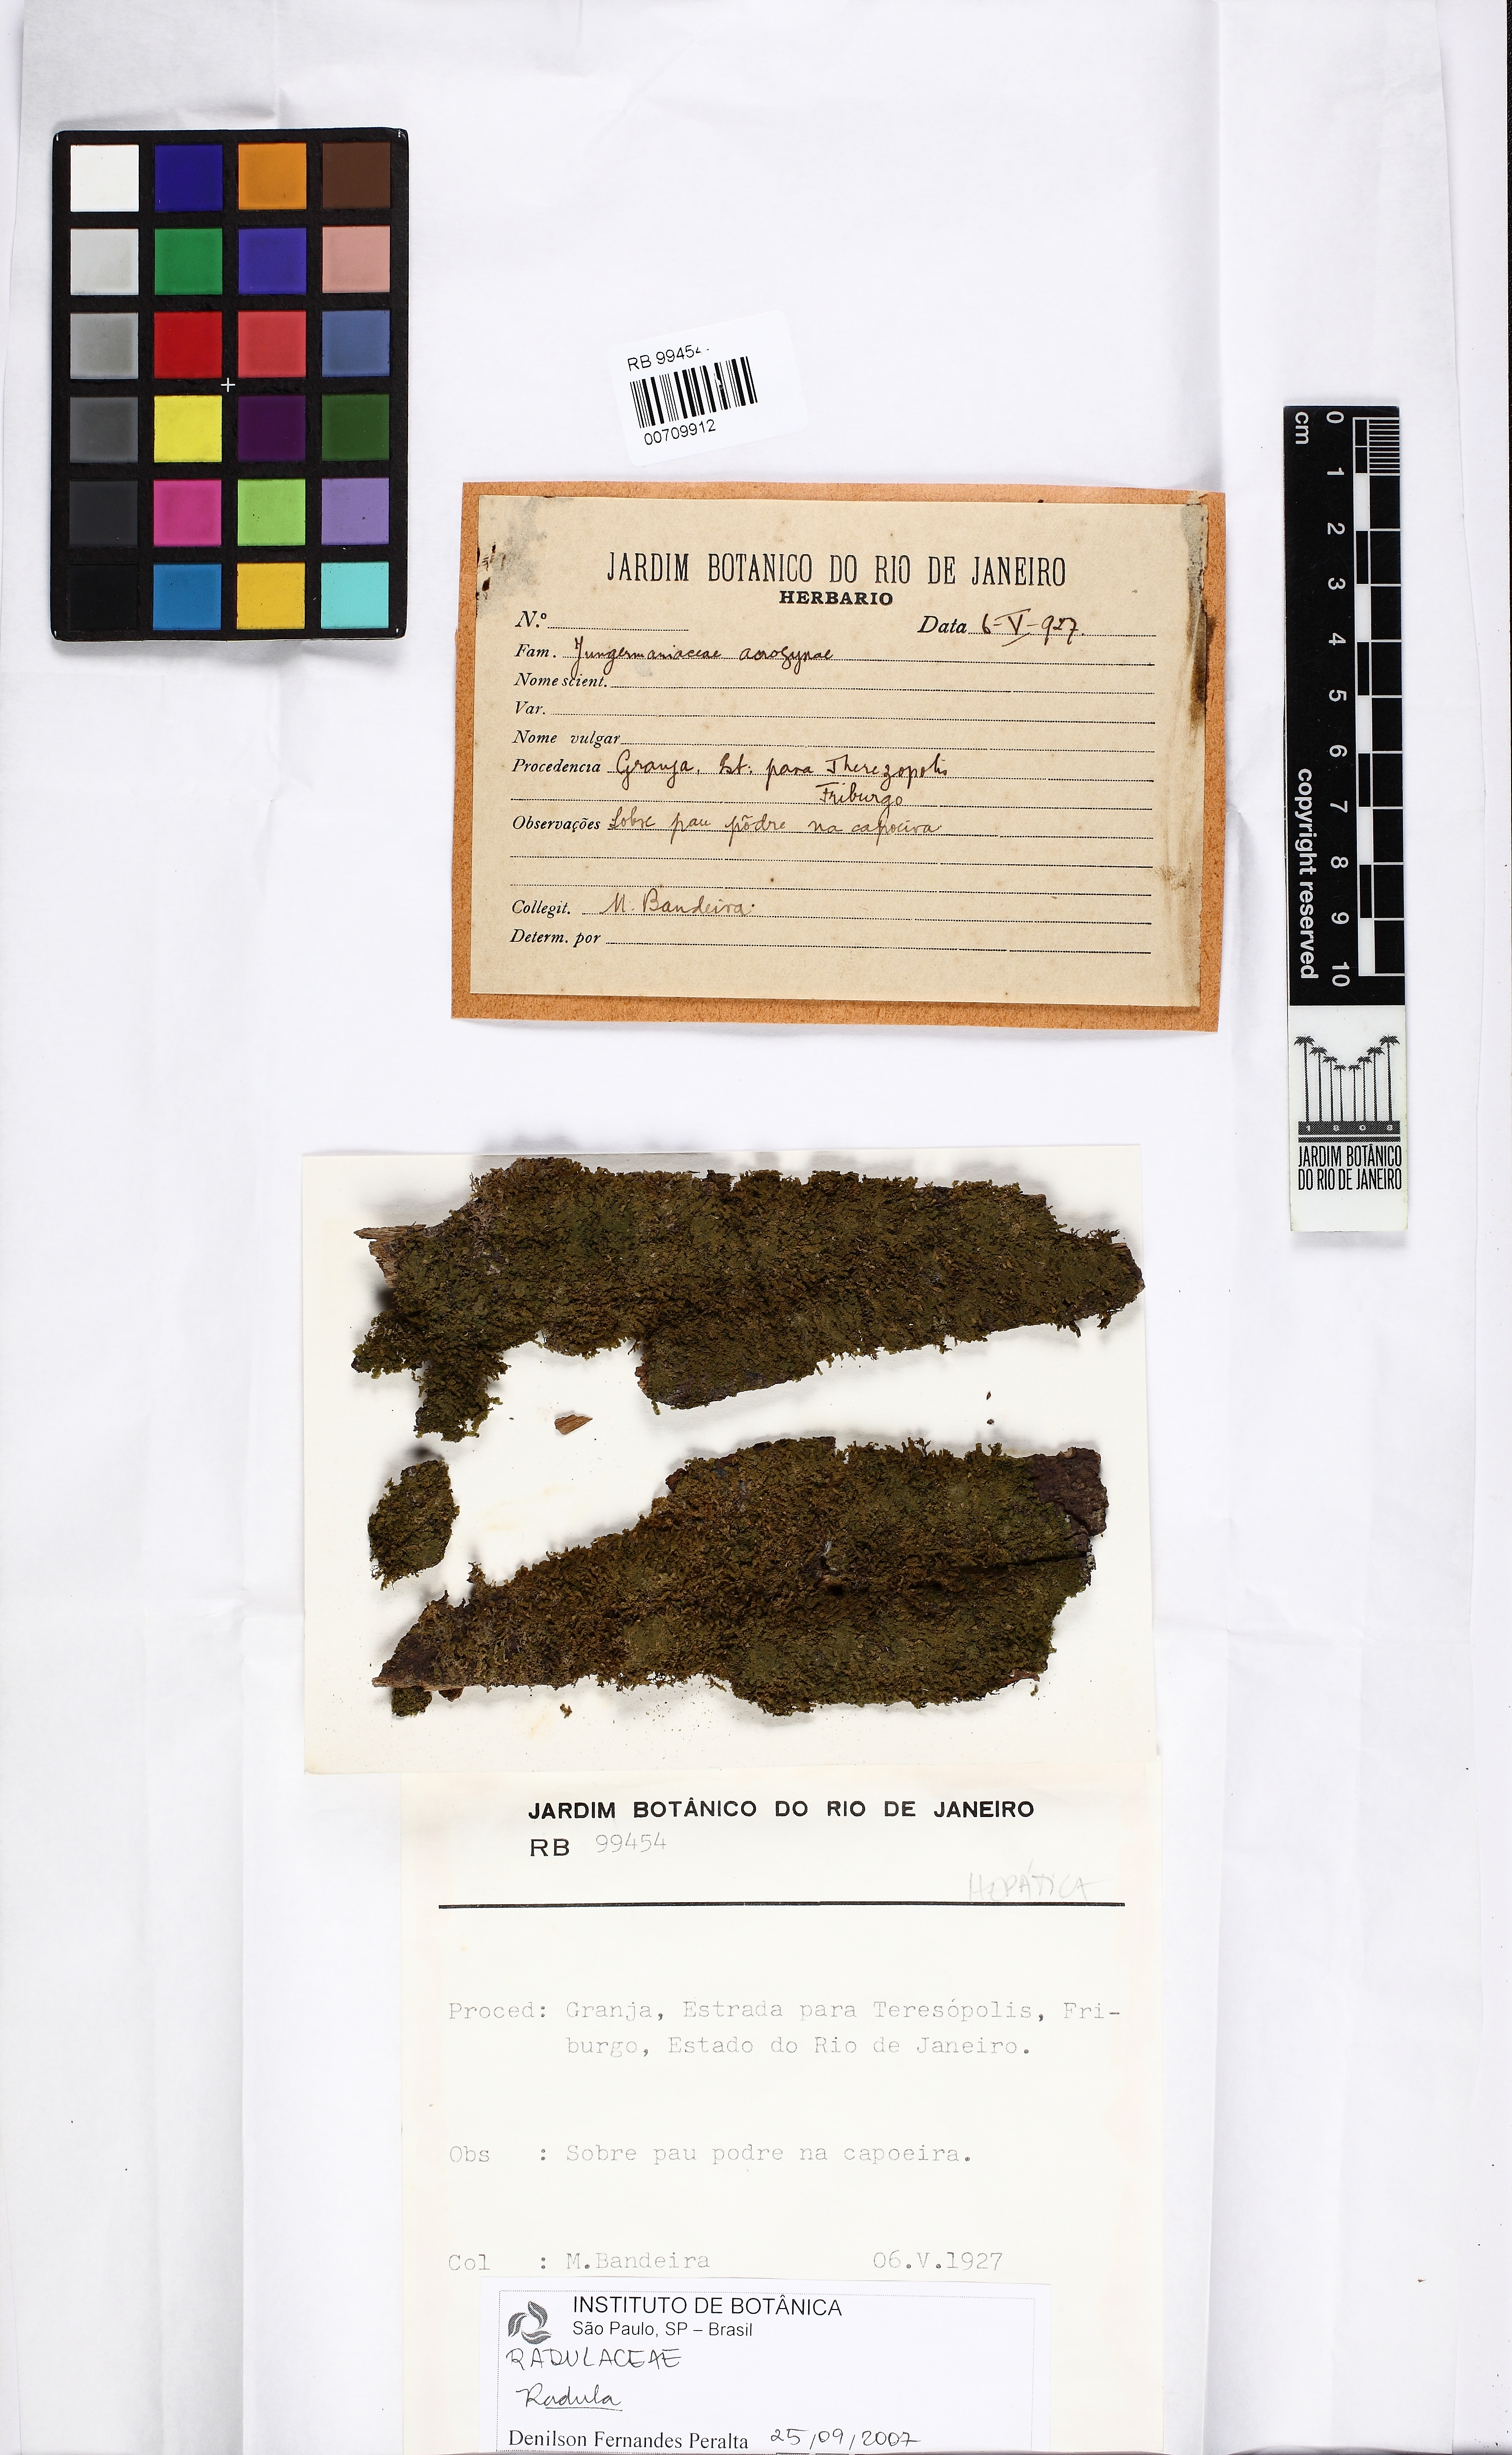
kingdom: Plantae
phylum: Marchantiophyta
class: Jungermanniopsida
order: Porellales
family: Radulaceae
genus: Radula
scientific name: Radula fendleri
